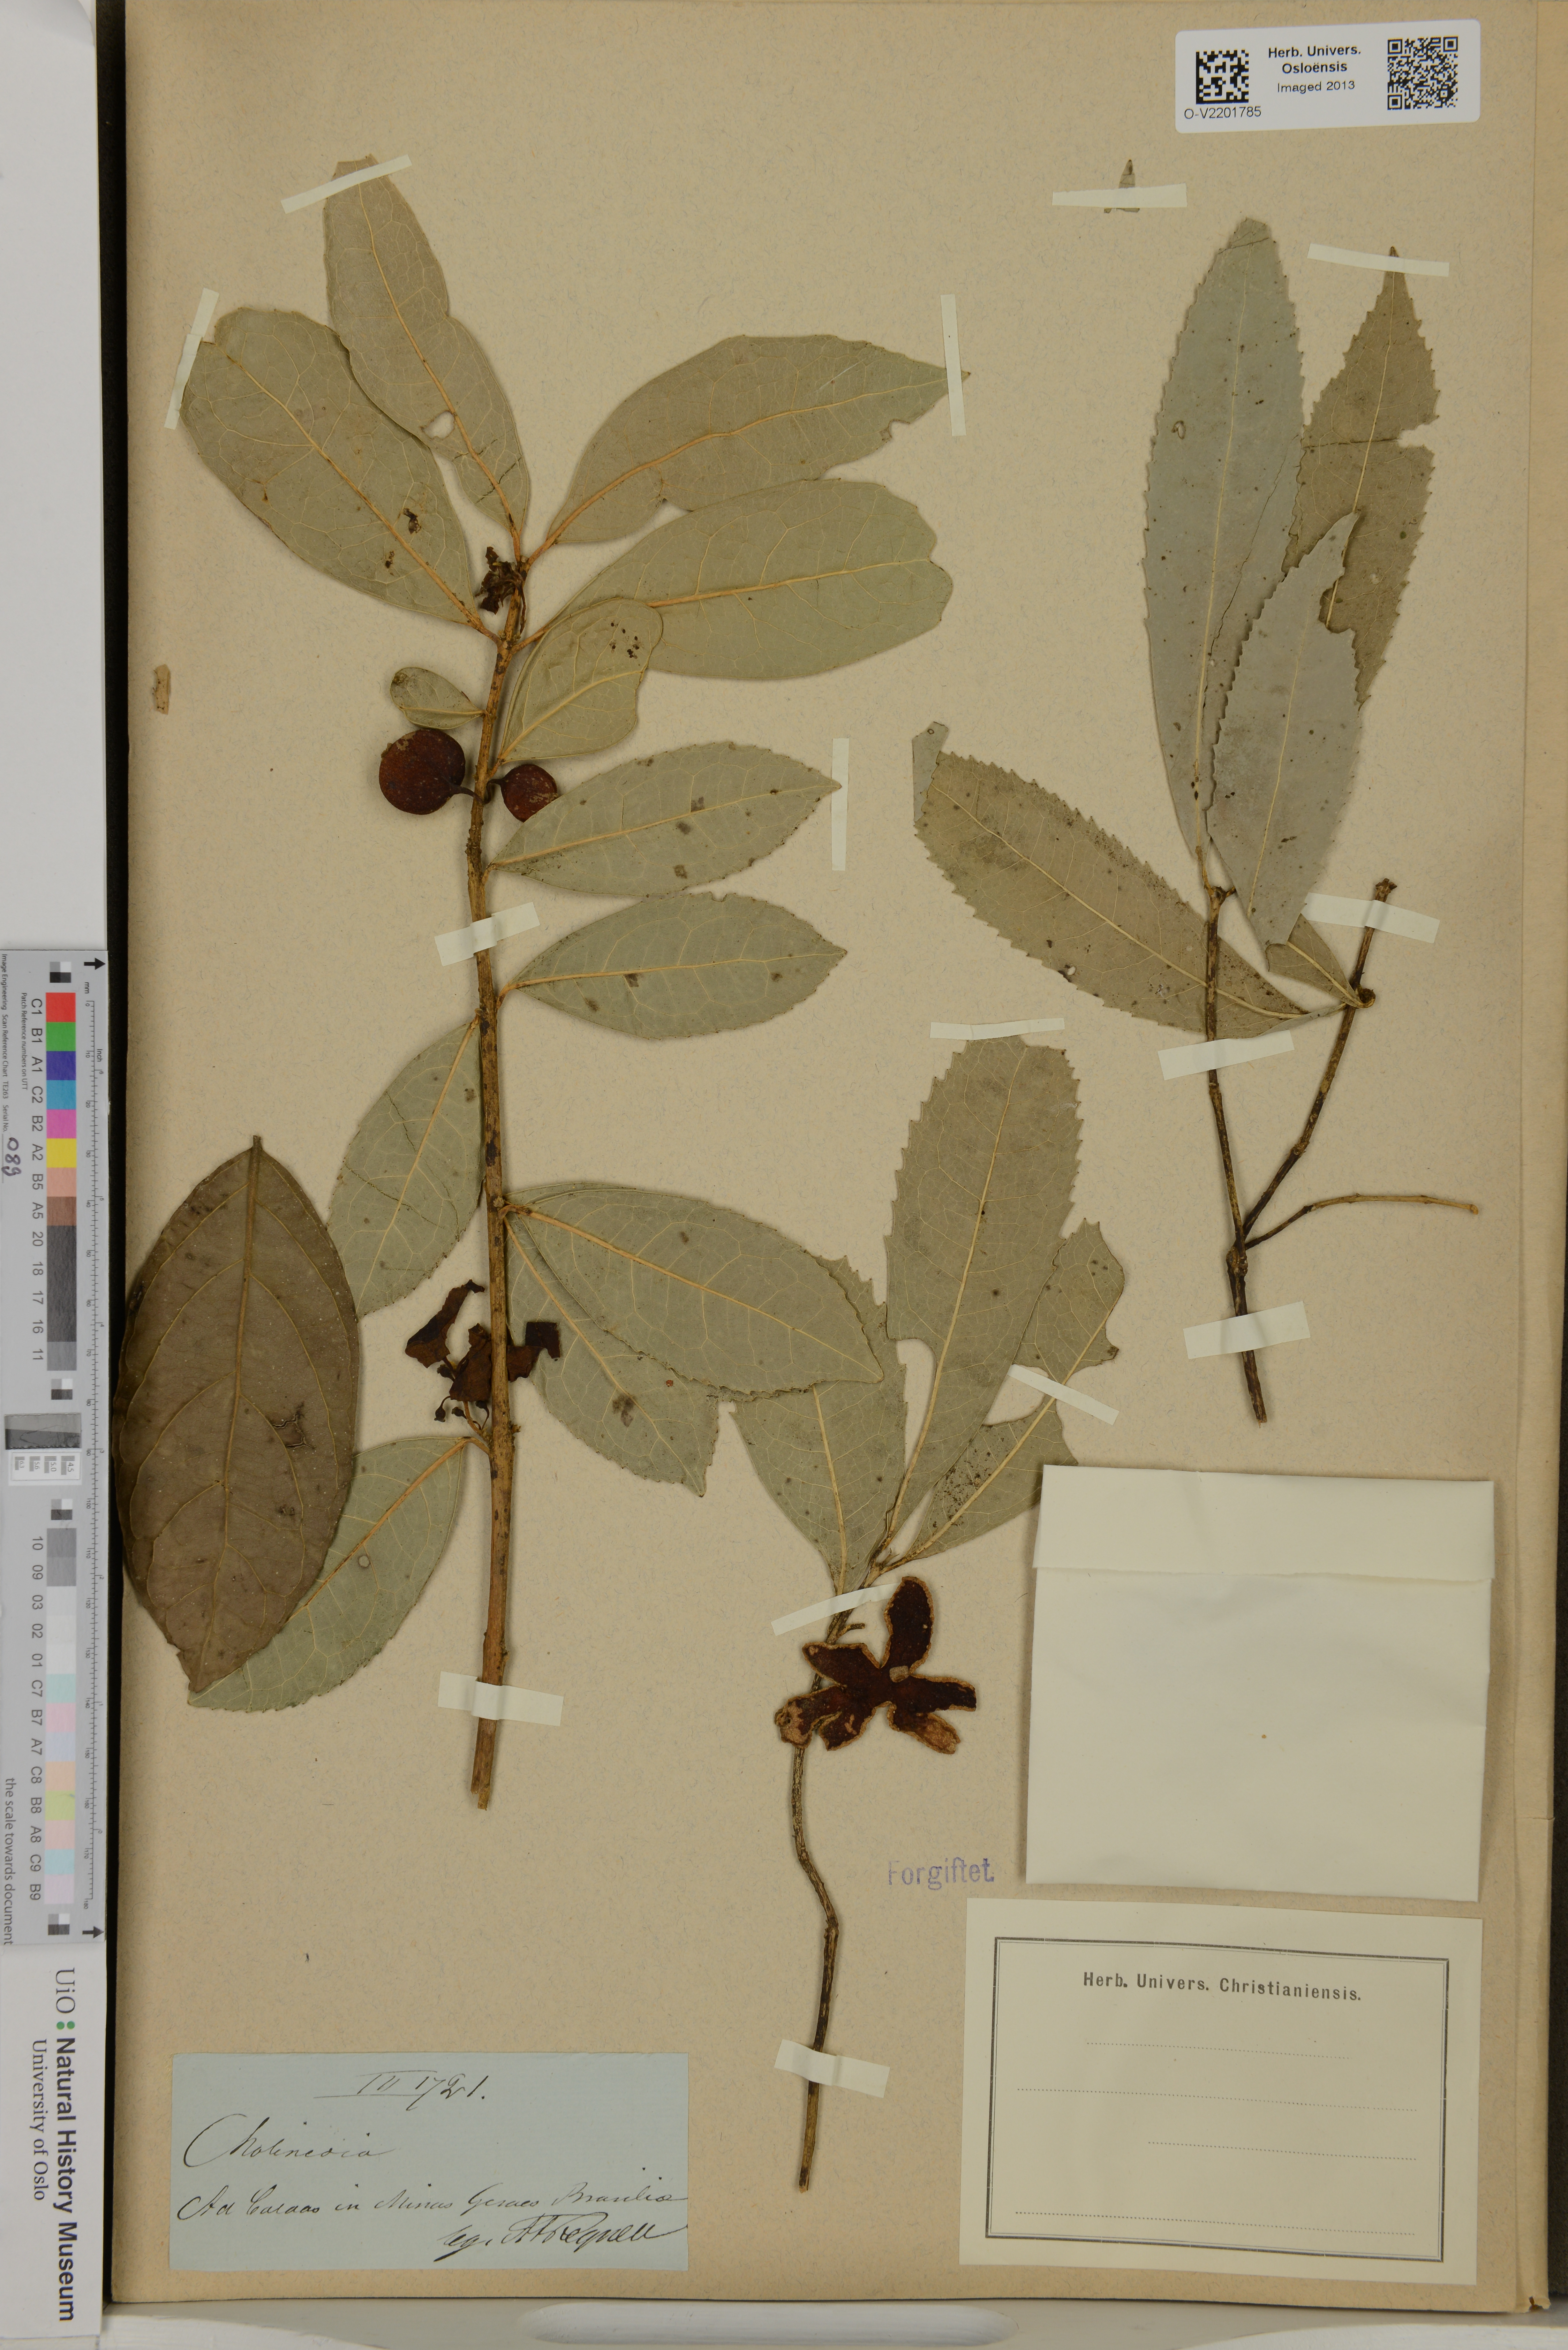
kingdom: Plantae
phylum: Tracheophyta
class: Magnoliopsida
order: Laurales
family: Monimiaceae
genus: Mollinedia
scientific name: Mollinedia
